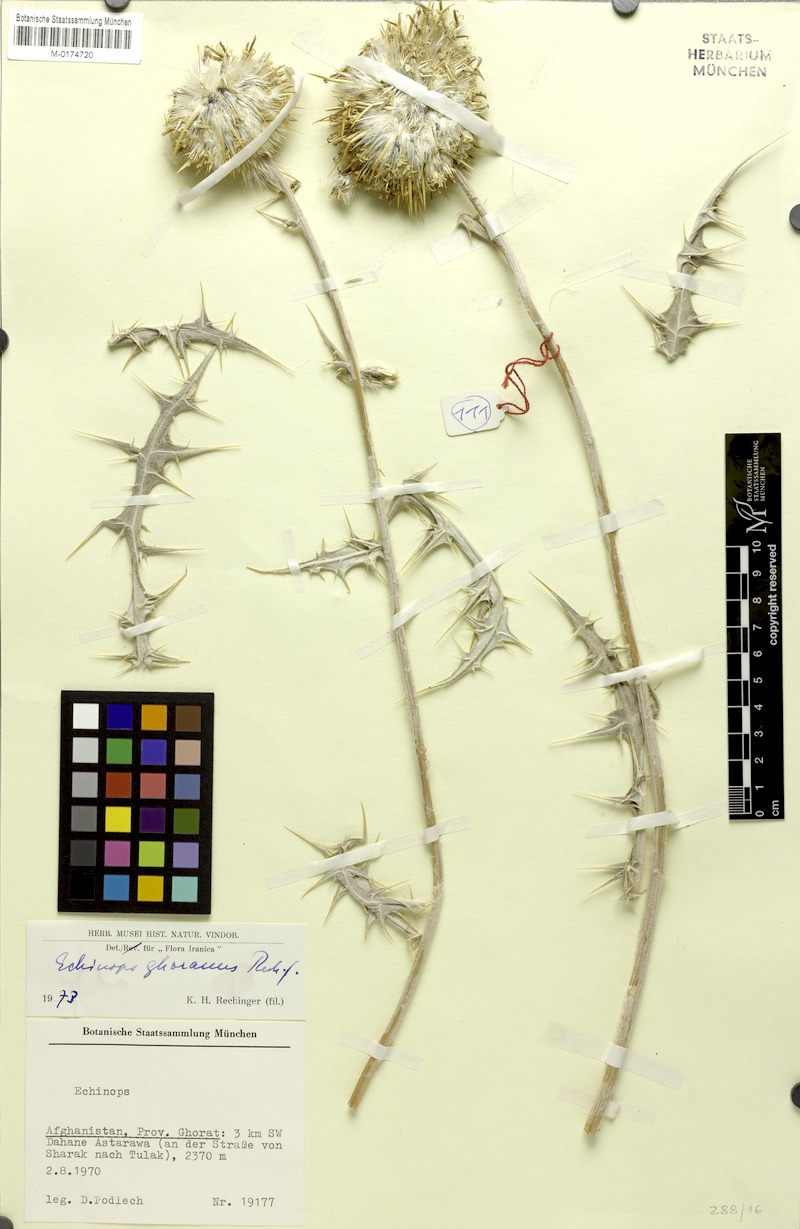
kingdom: Plantae
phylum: Tracheophyta
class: Magnoliopsida
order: Asterales
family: Asteraceae
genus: Echinops
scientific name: Echinops ghoranus
